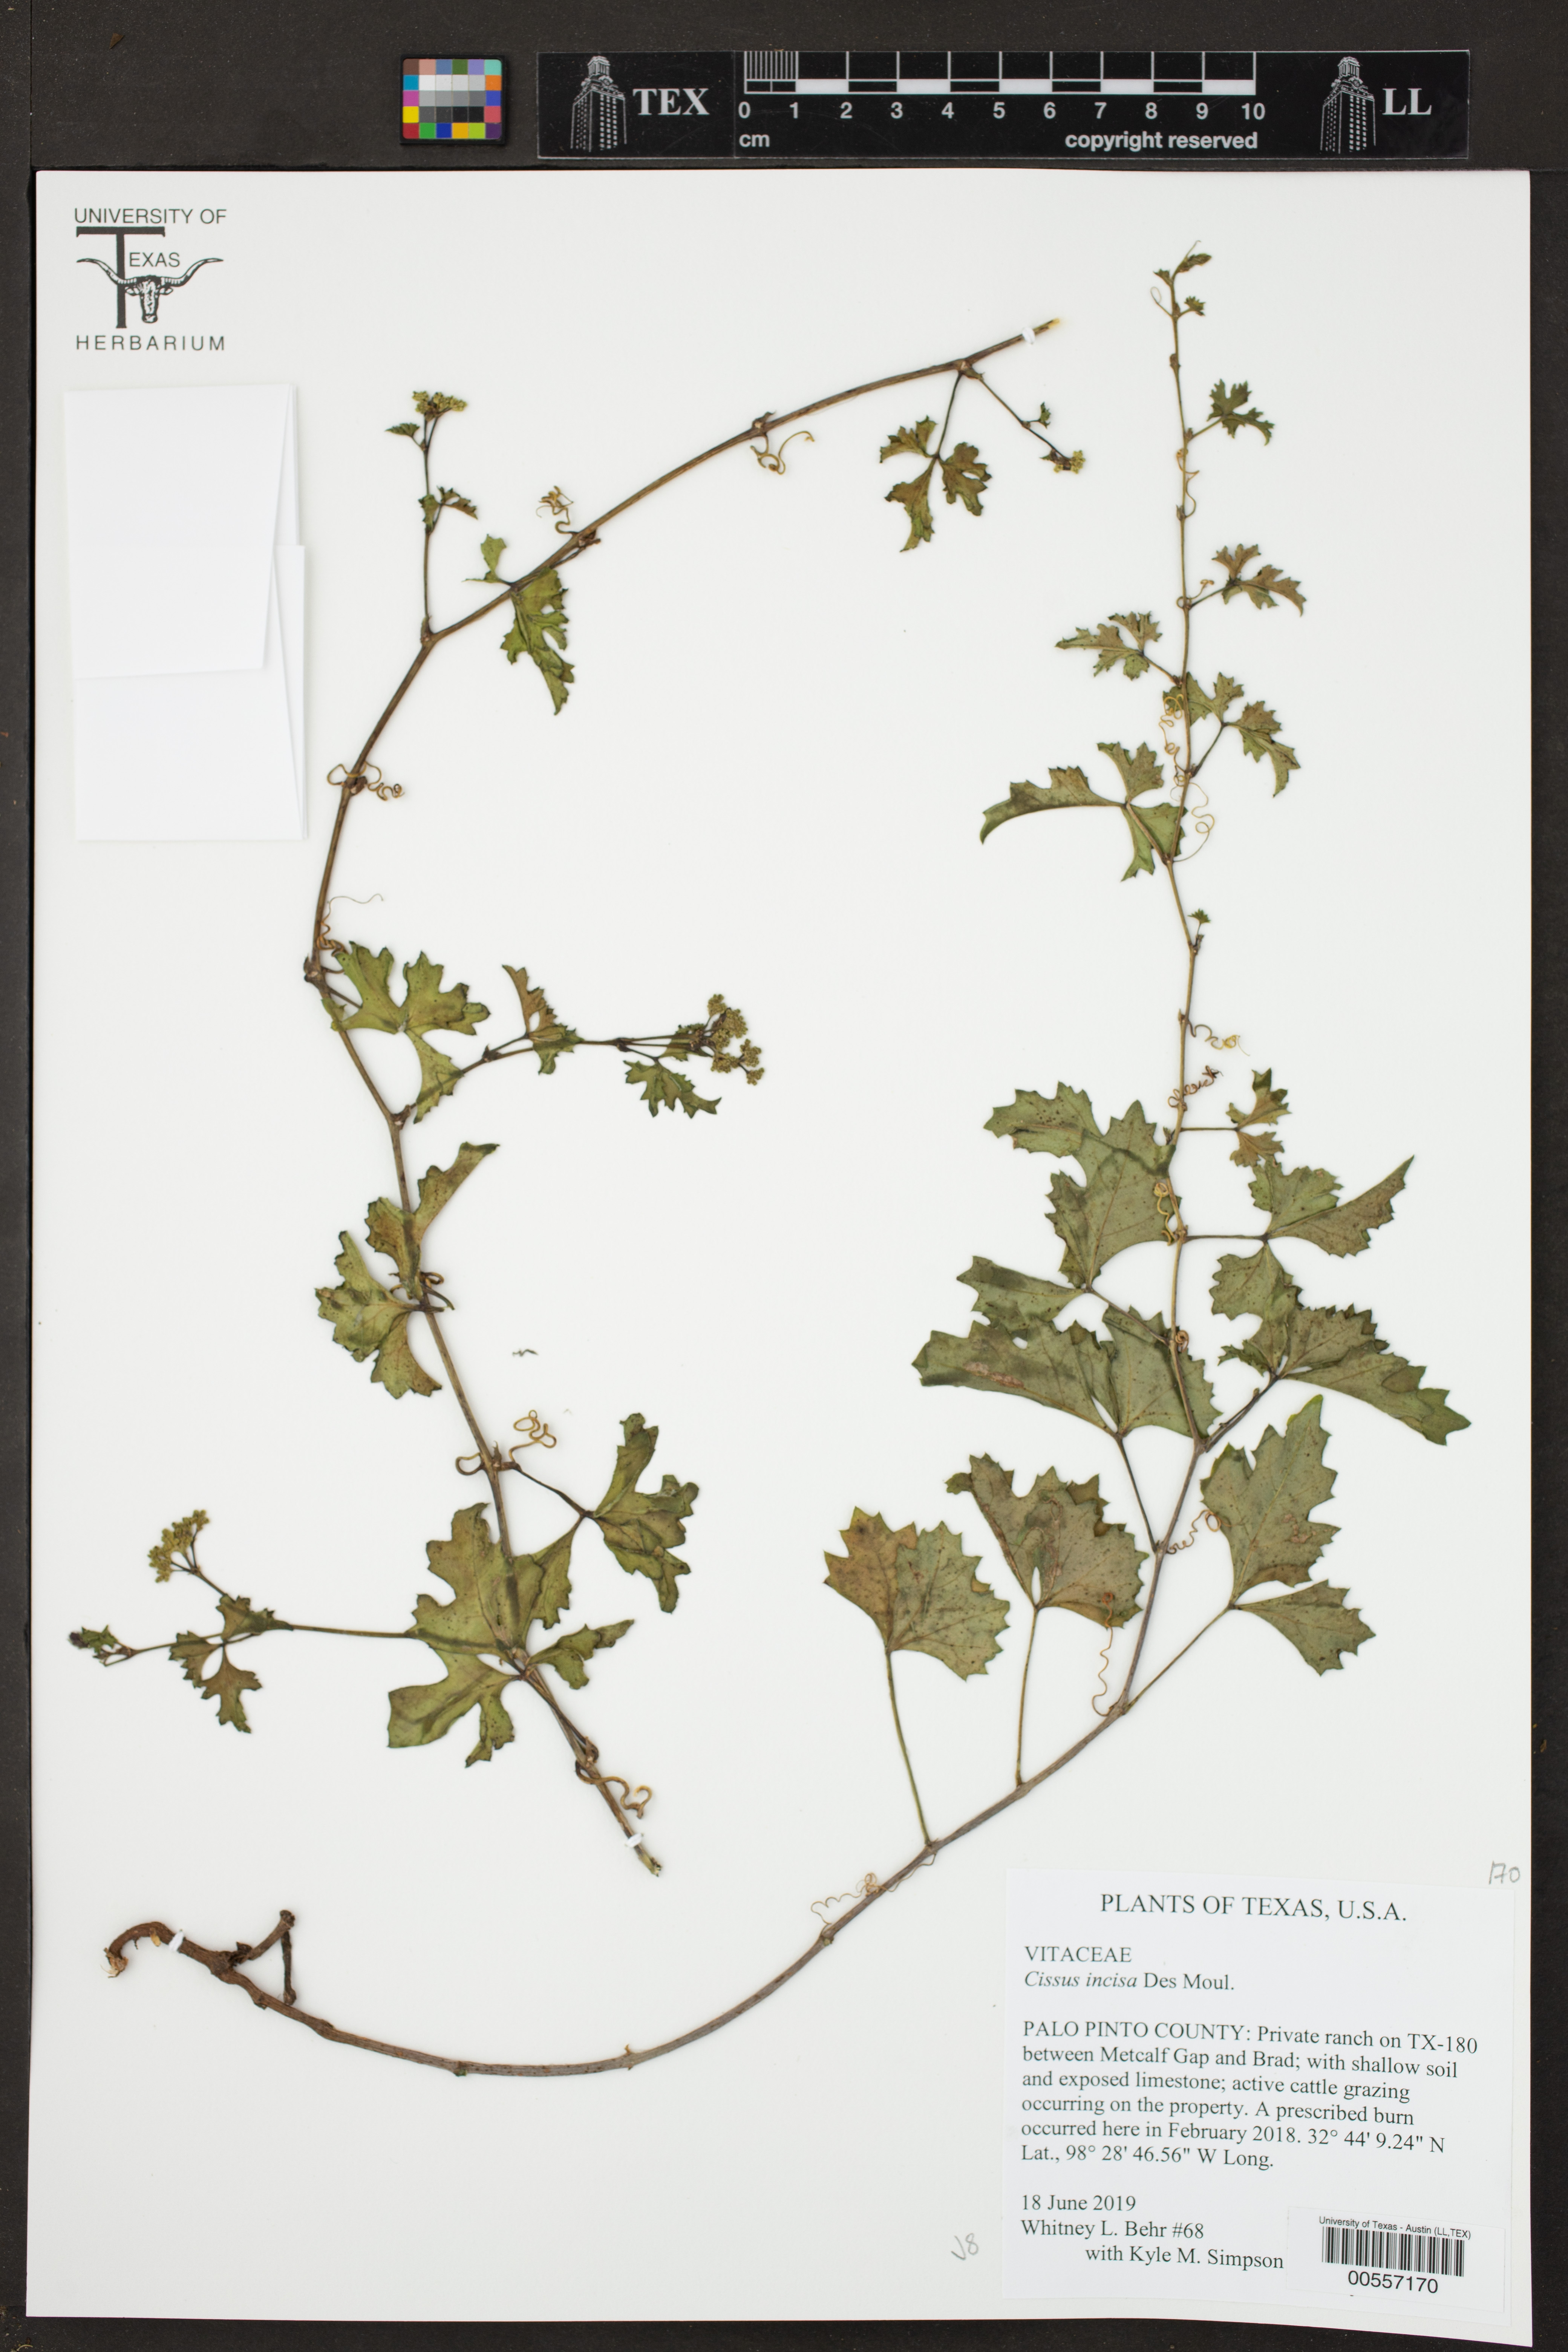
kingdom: Plantae
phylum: Tracheophyta
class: Magnoliopsida
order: Vitales
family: Vitaceae
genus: Cissus
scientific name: Cissus trifoliata
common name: Vine-sorrel
